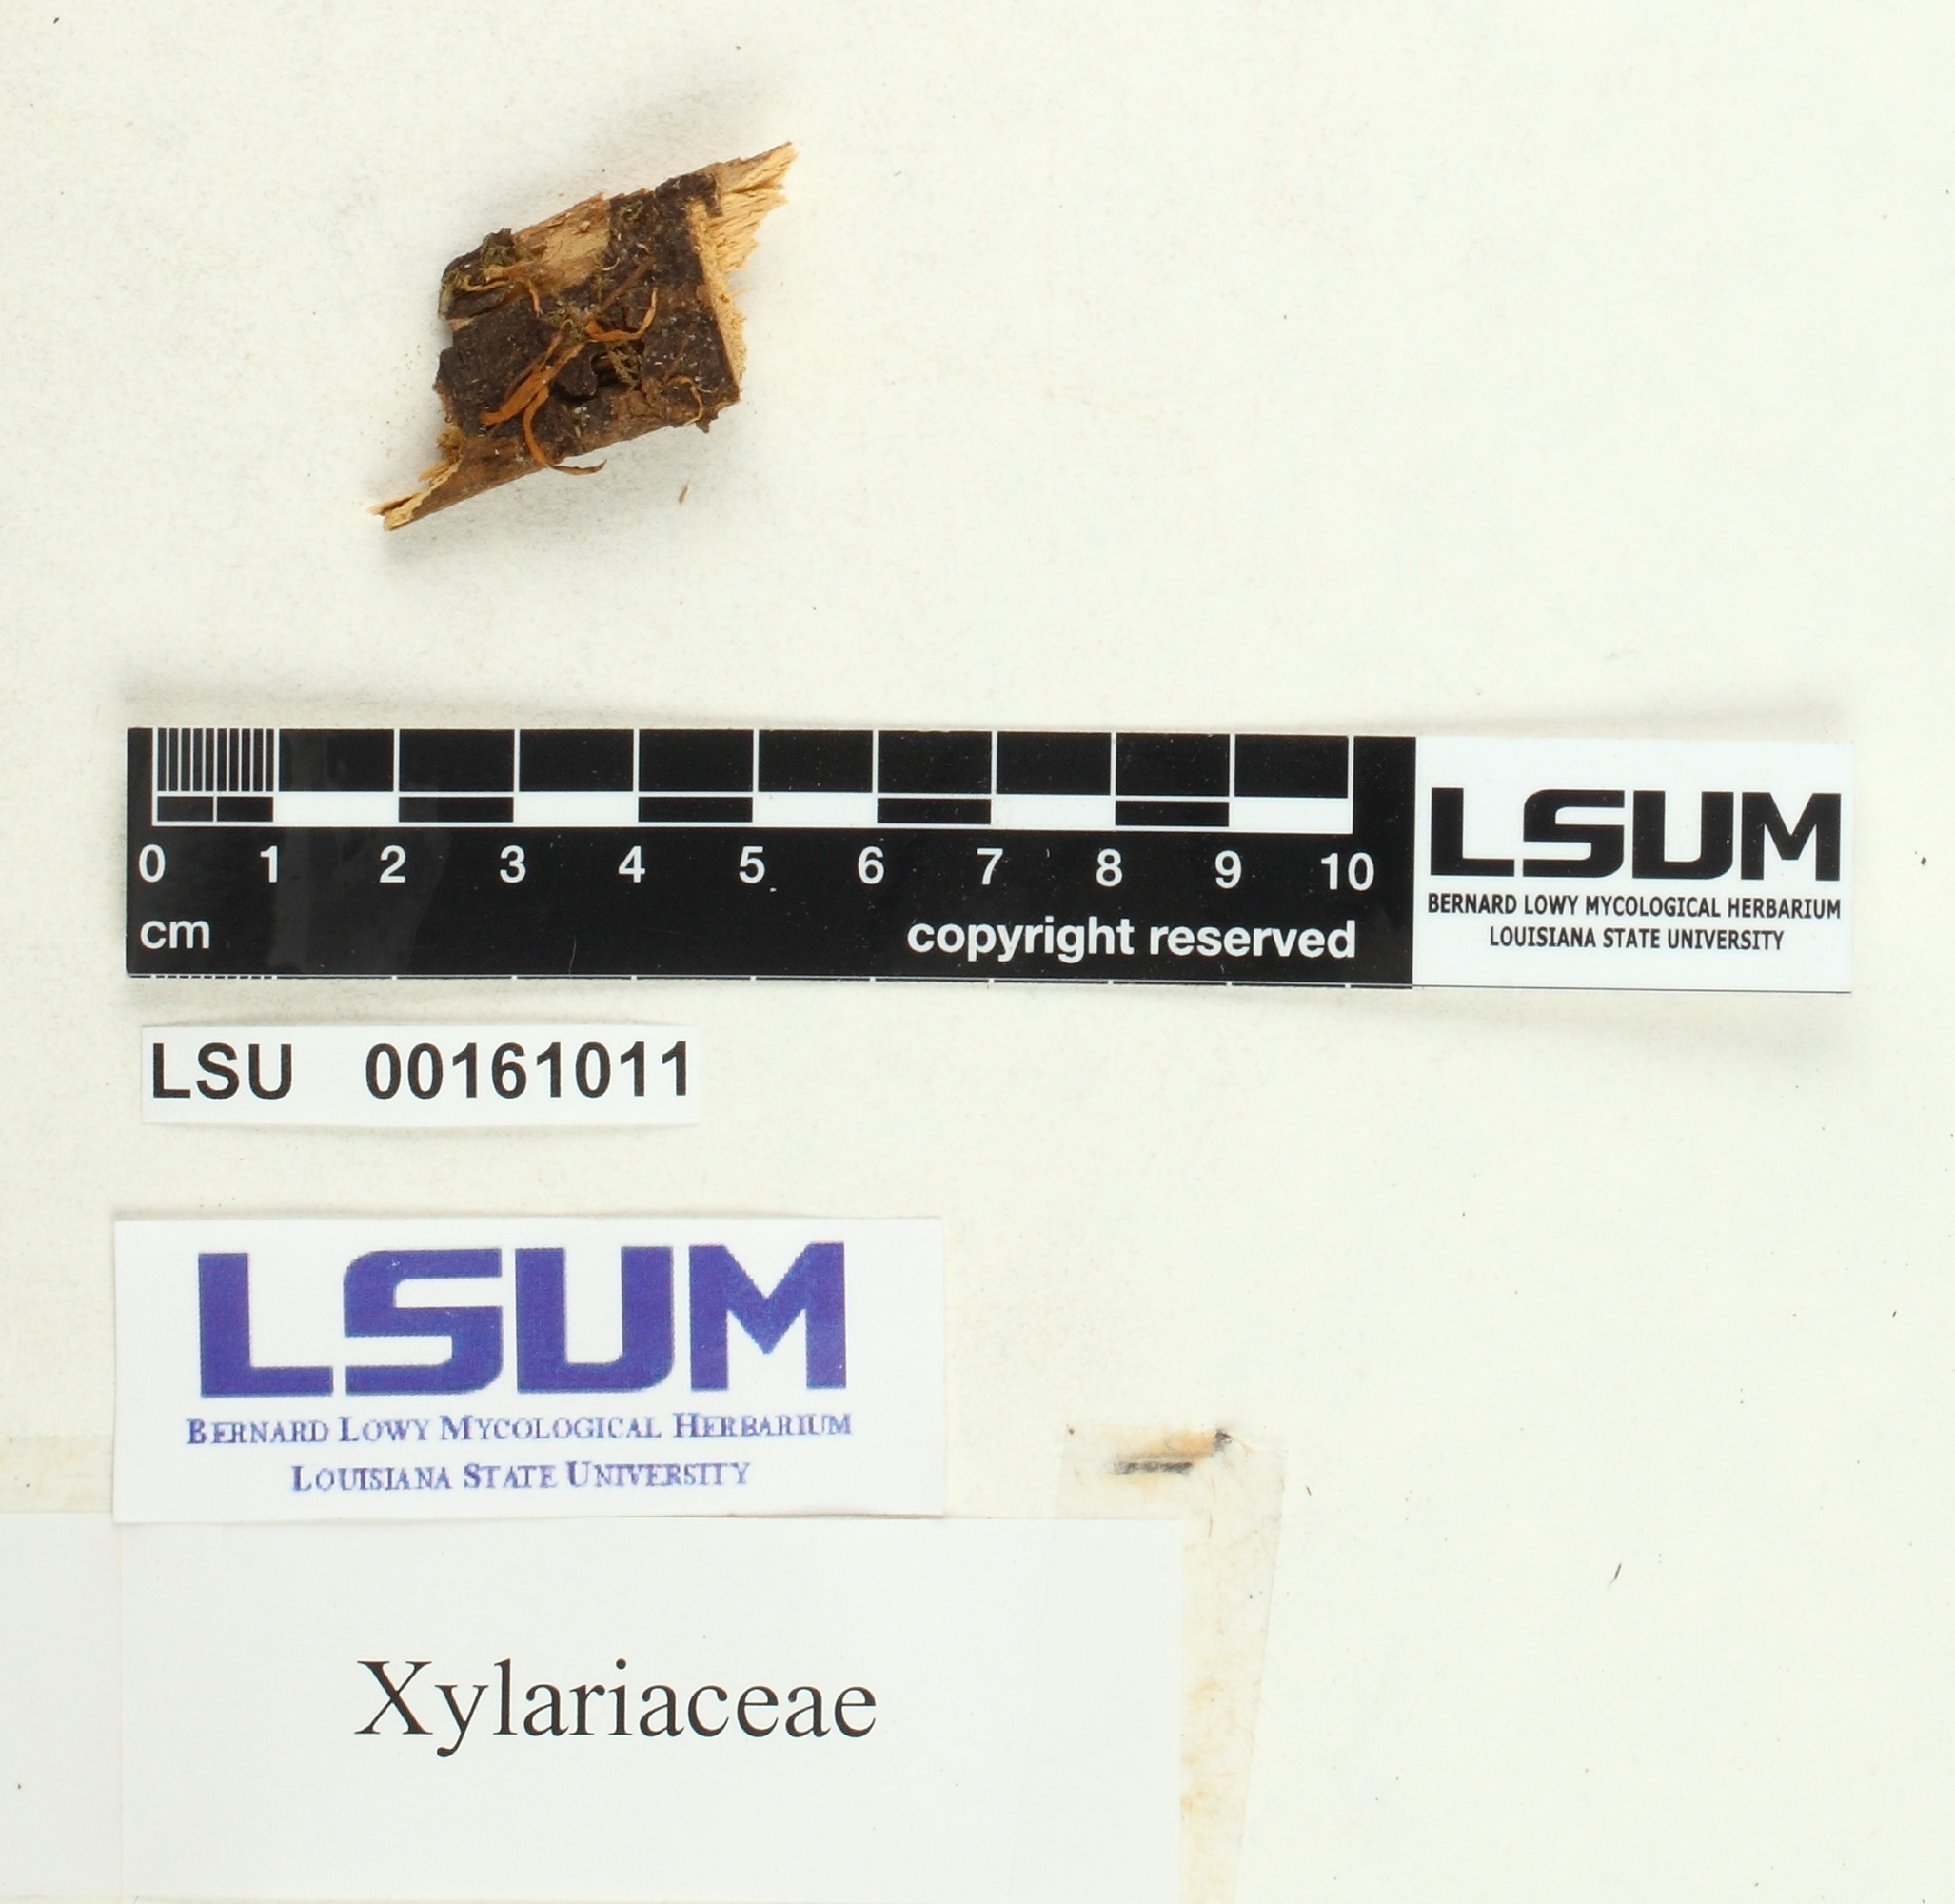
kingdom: Fungi
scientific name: Fungi
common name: Fungi
